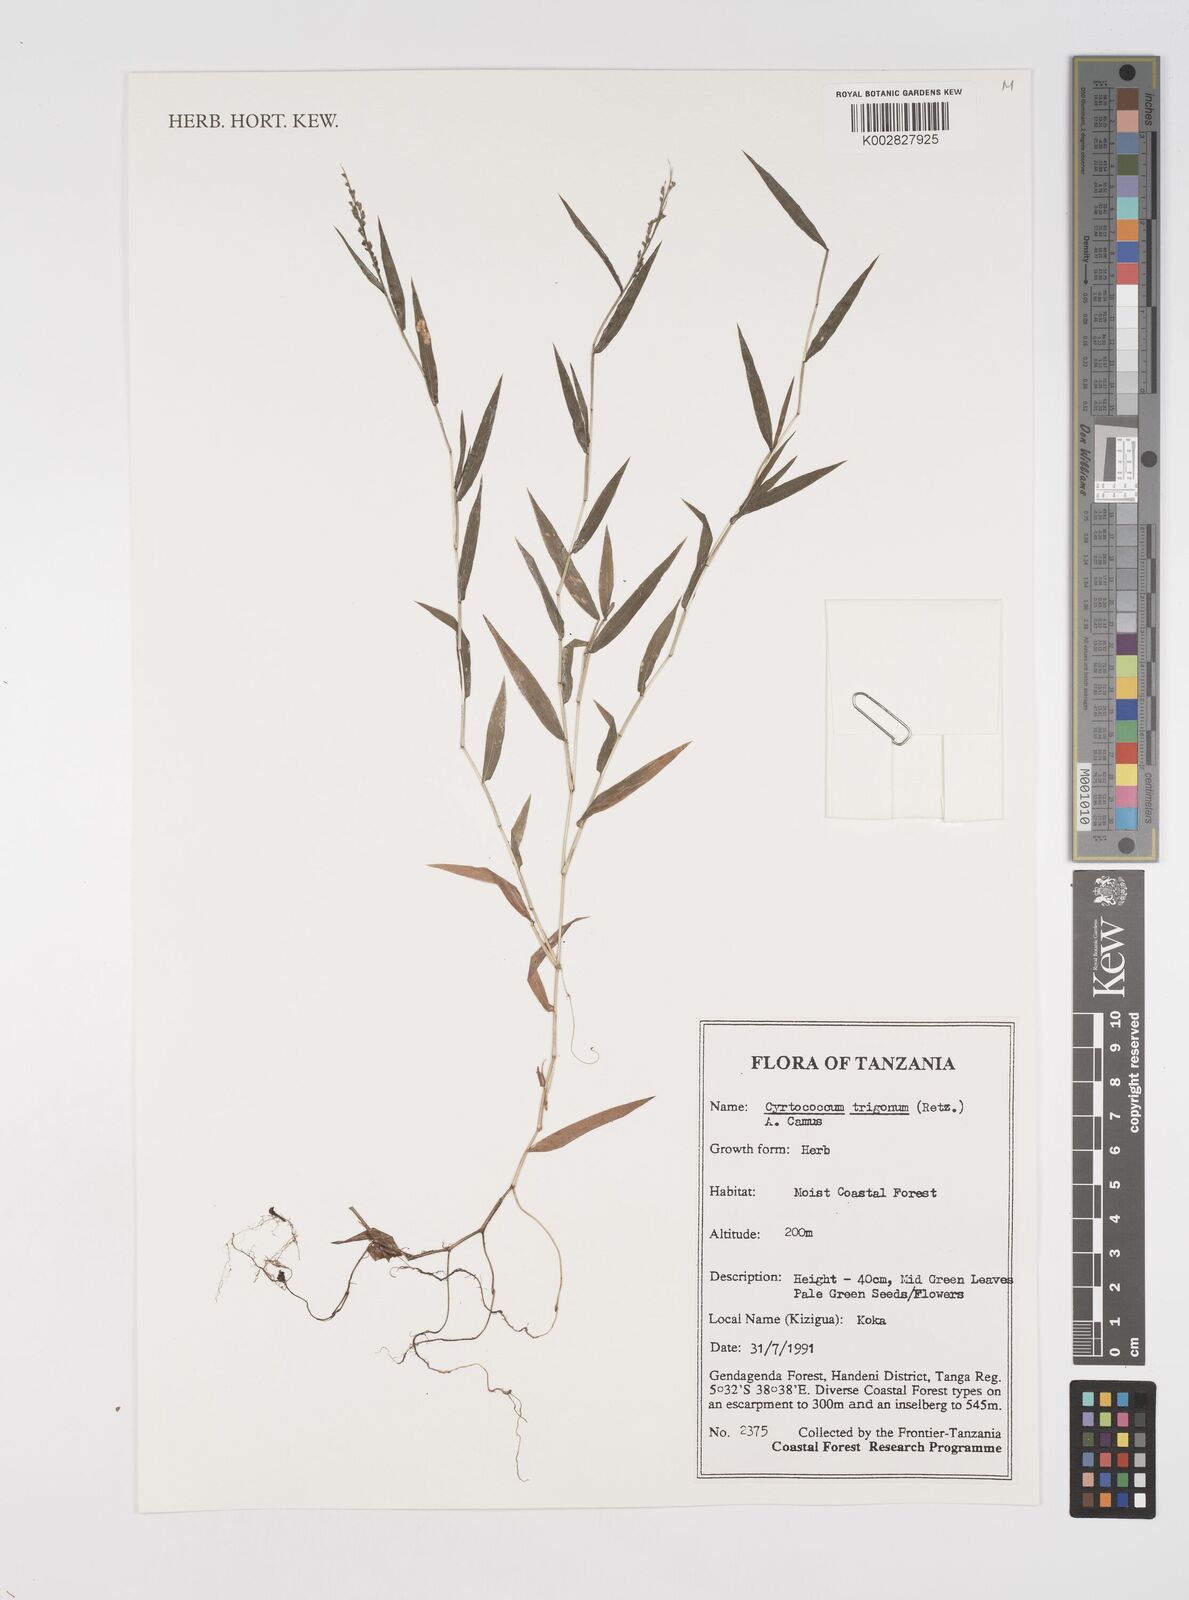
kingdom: Plantae
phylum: Tracheophyta
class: Liliopsida
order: Poales
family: Poaceae
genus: Cyrtococcum
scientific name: Cyrtococcum trigonum
